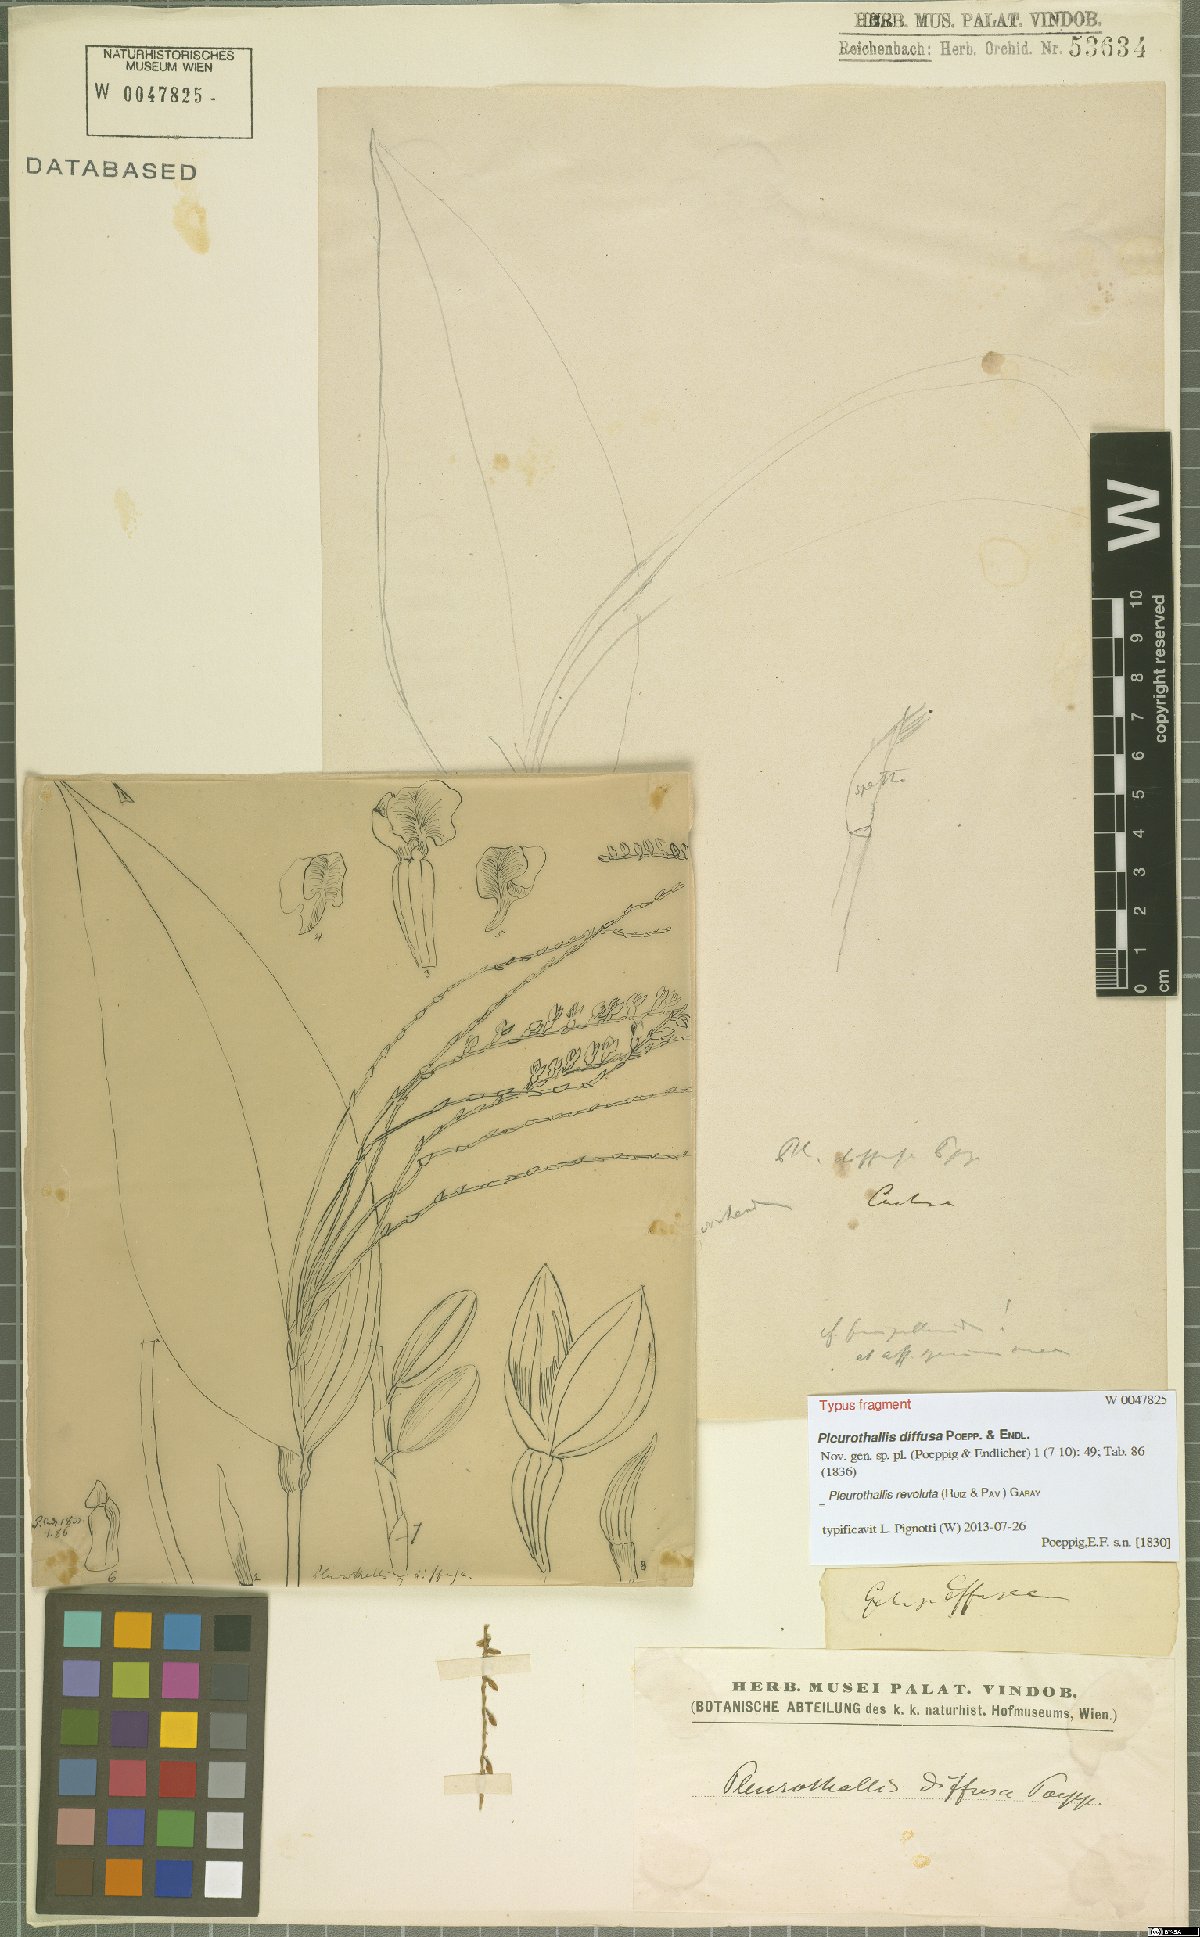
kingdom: Plantae
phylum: Tracheophyta
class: Liliopsida
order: Asparagales
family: Orchidaceae
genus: Pleurothallis
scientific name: Pleurothallis revoluta
